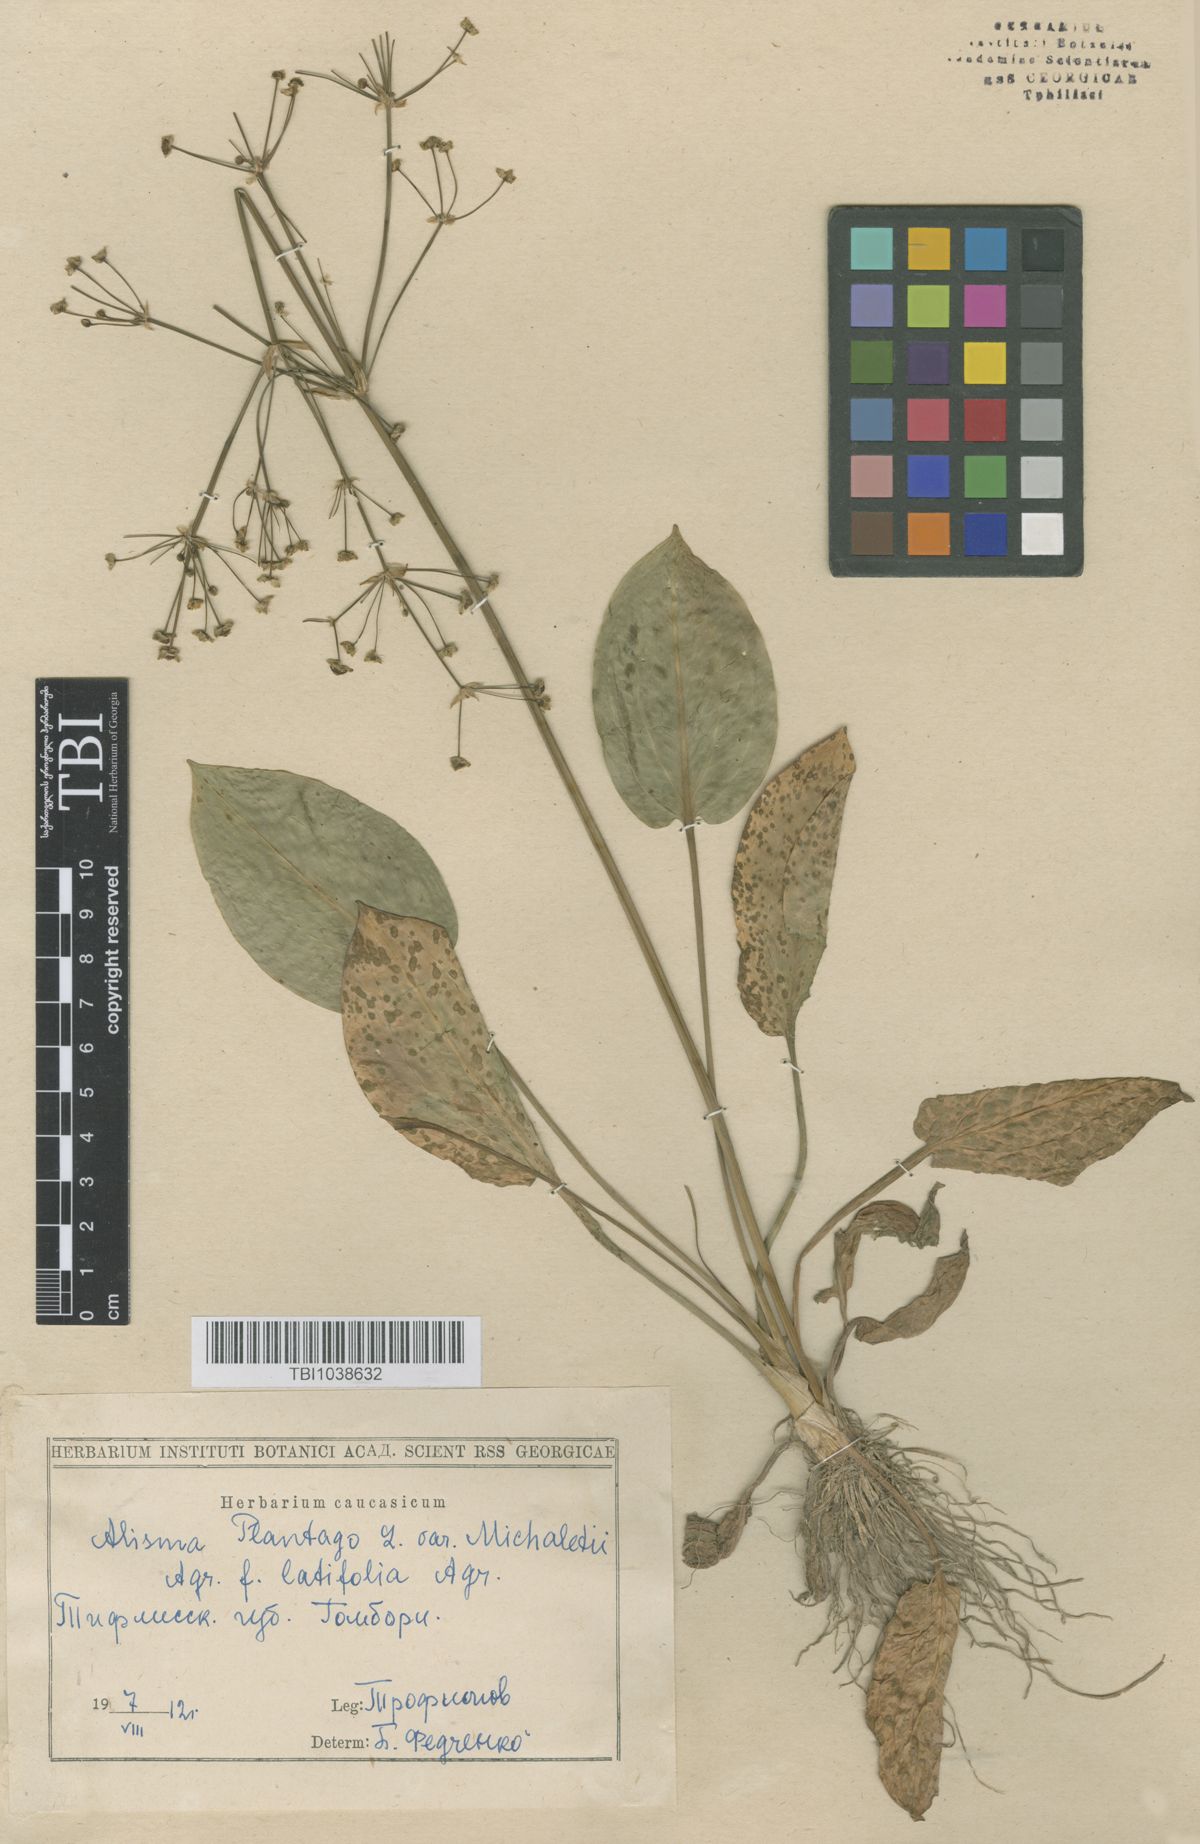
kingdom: Plantae
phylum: Tracheophyta
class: Liliopsida
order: Alismatales
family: Alismataceae
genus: Alisma
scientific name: Alisma plantago-aquatica
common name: Water-plantain
